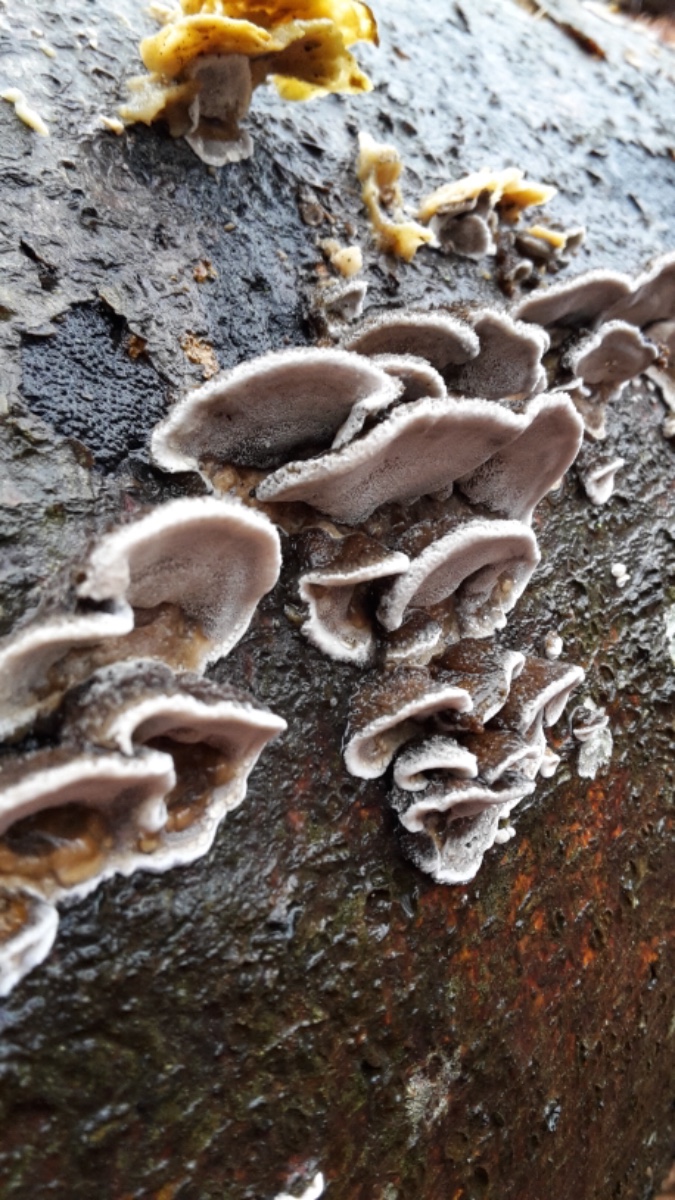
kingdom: Fungi
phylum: Basidiomycota
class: Agaricomycetes
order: Polyporales
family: Phanerochaetaceae
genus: Bjerkandera
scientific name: Bjerkandera adusta
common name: sveden sodporesvamp
